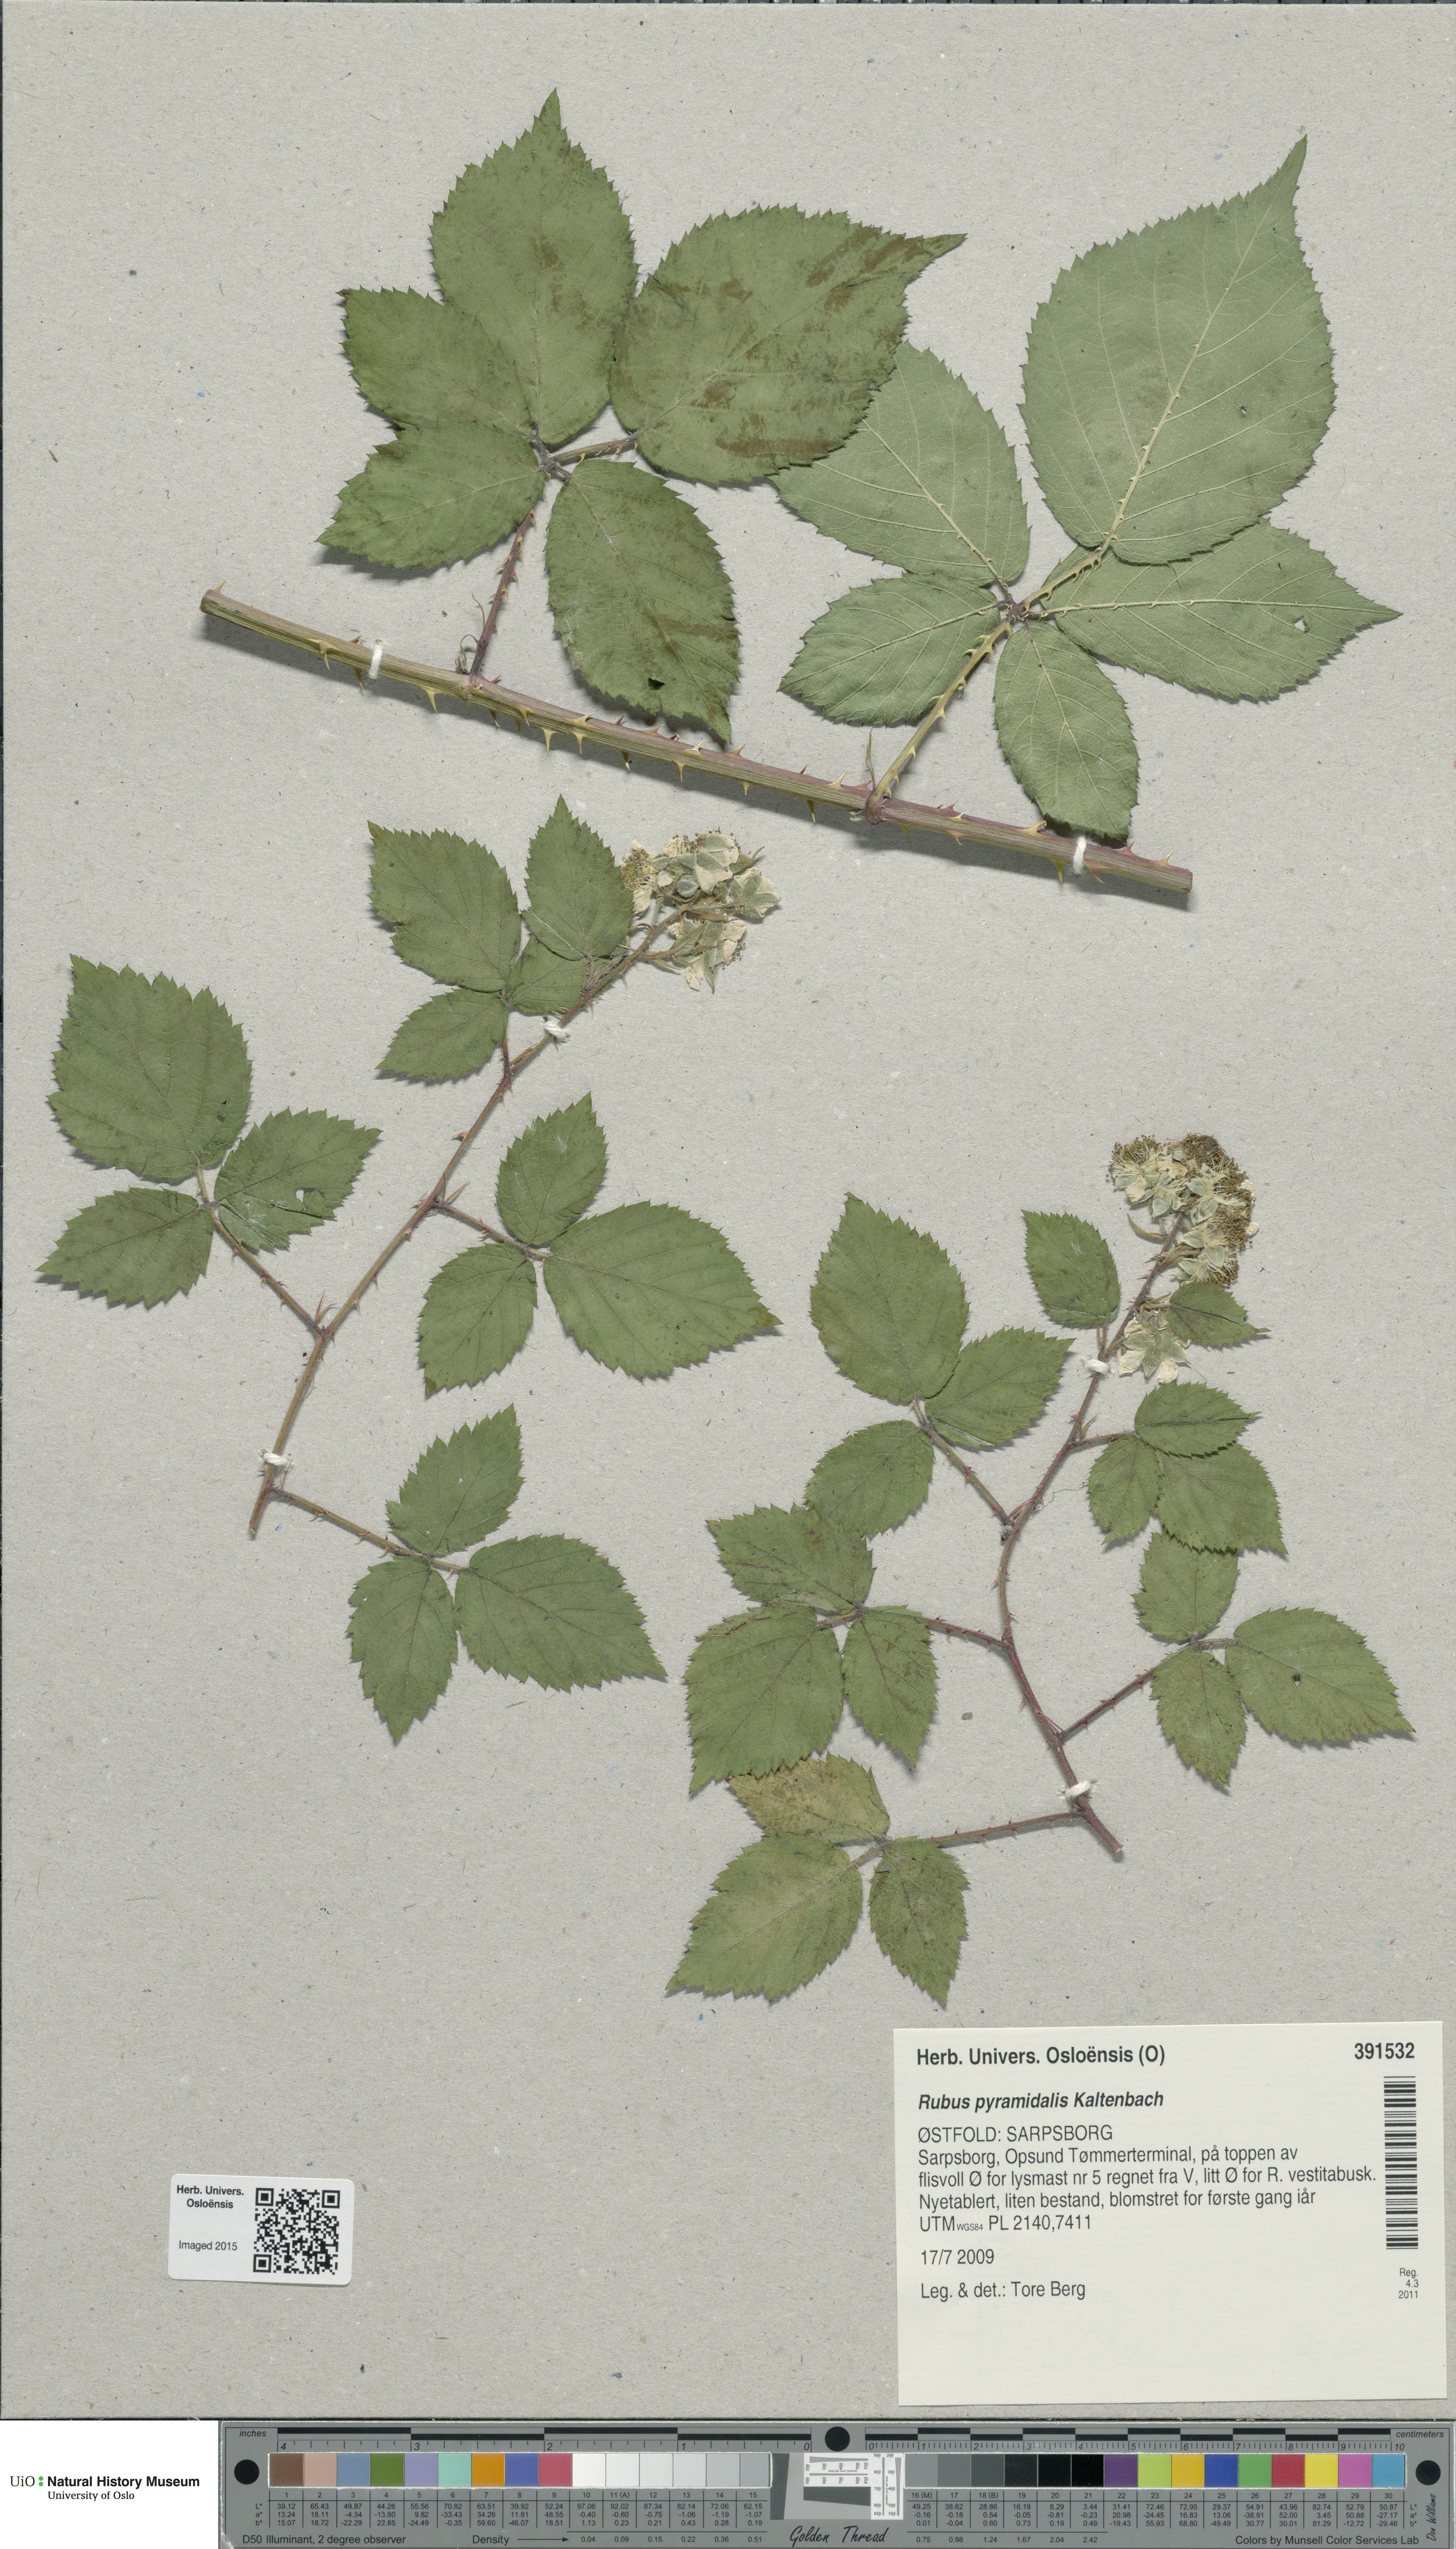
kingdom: Plantae
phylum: Tracheophyta
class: Magnoliopsida
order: Rosales
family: Rosaceae
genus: Rubus
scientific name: Rubus umbrosus
